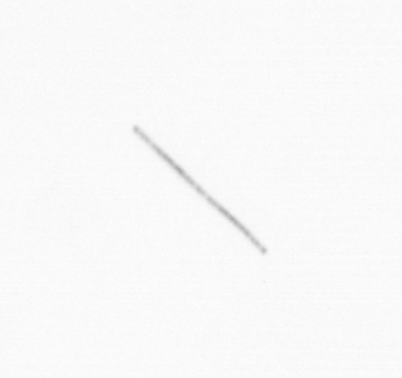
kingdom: Chromista
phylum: Ochrophyta
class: Bacillariophyceae
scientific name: Bacillariophyceae
